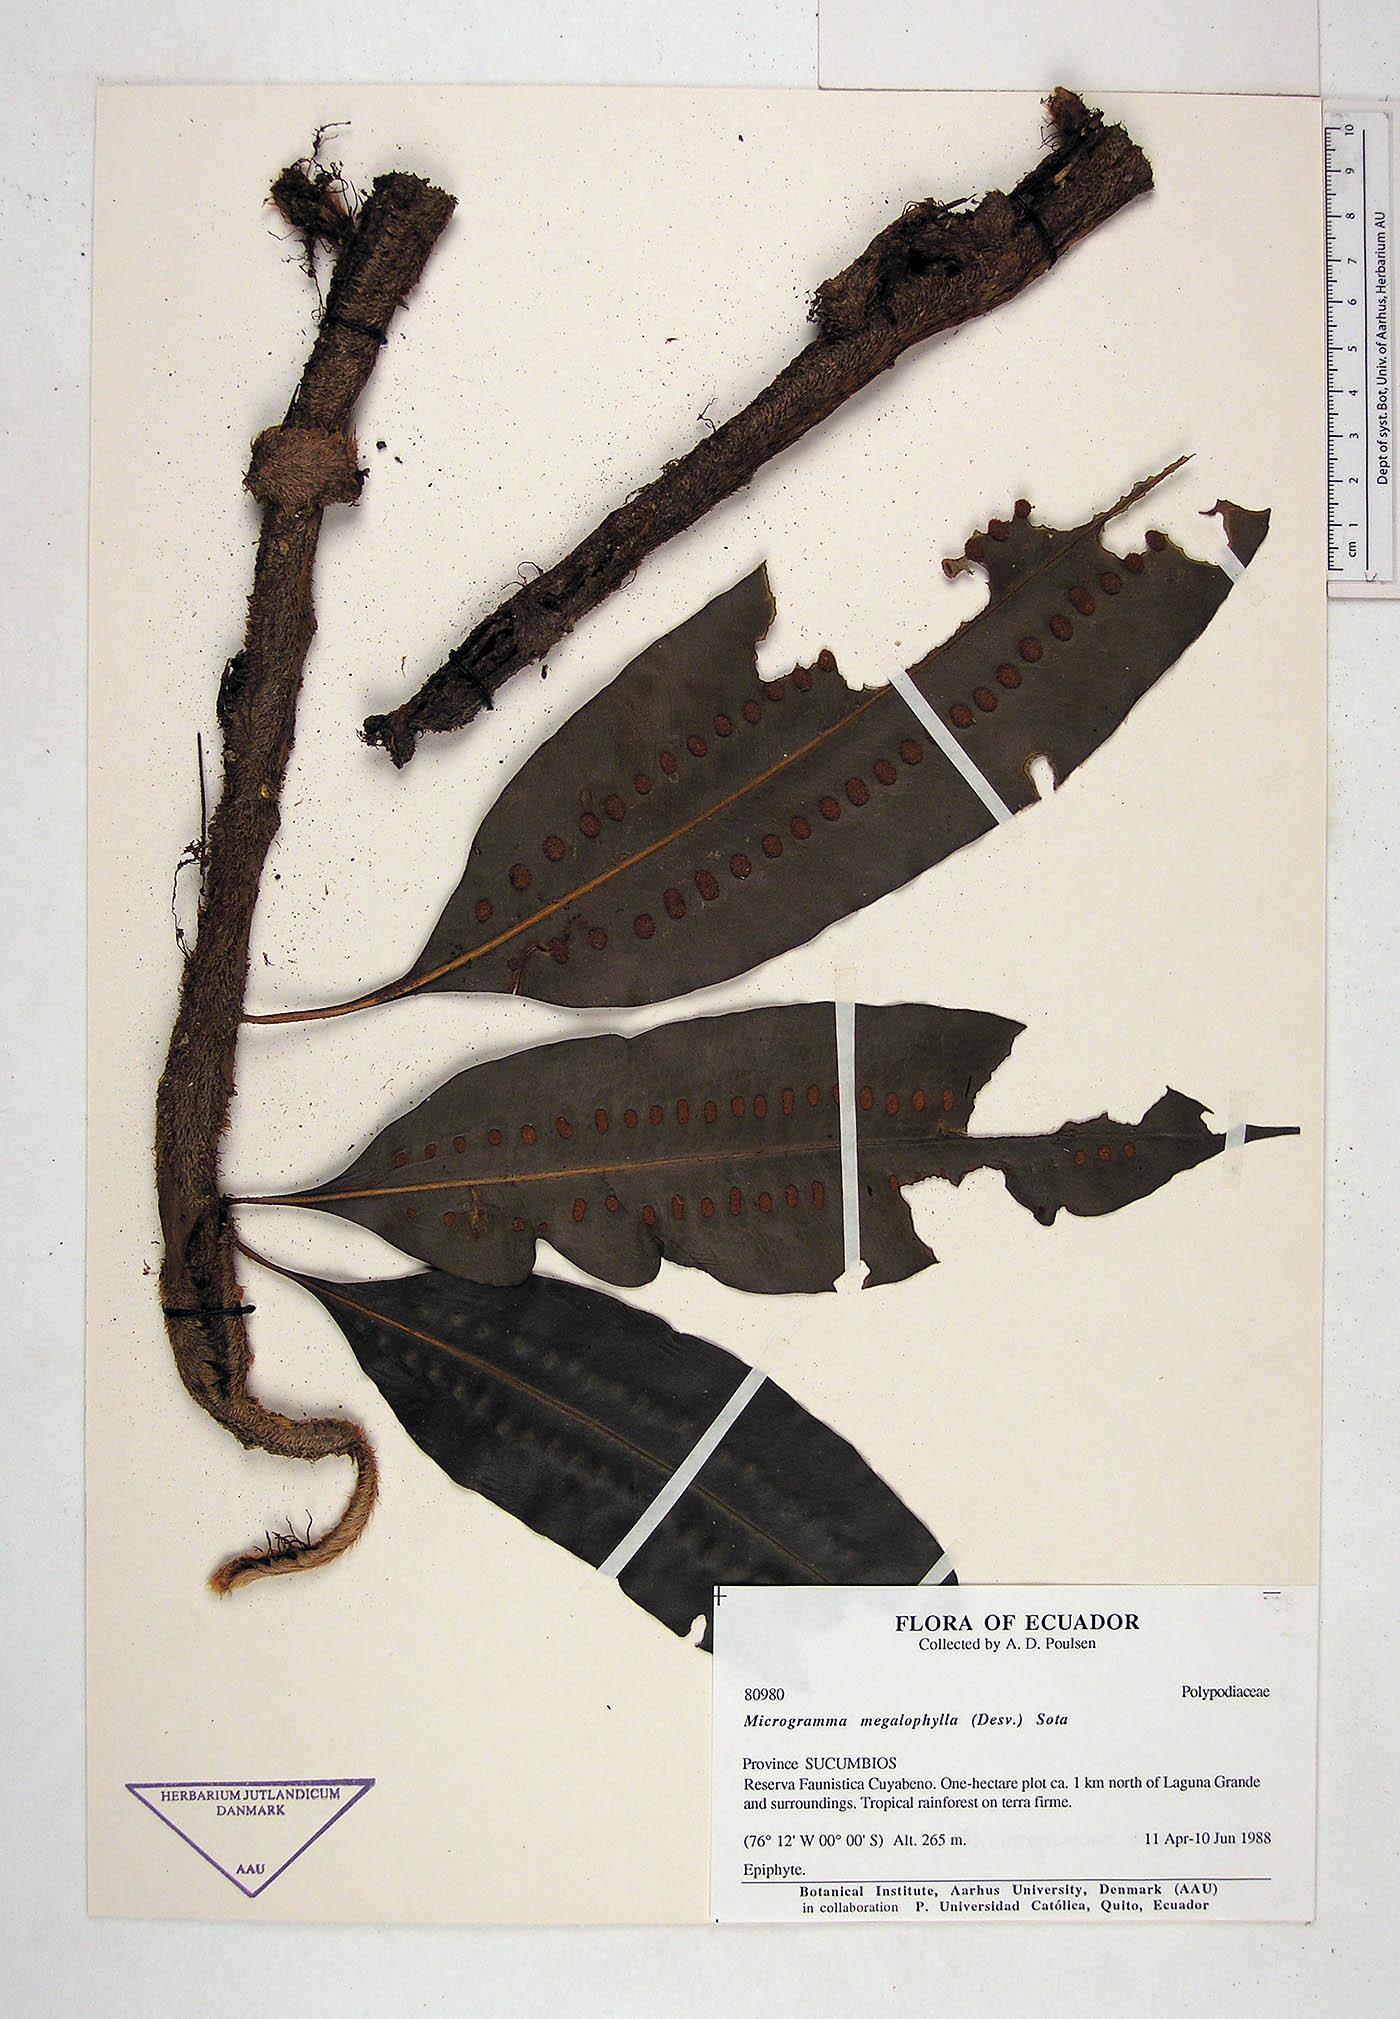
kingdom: Plantae
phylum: Tracheophyta
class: Polypodiopsida
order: Polypodiales
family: Polypodiaceae
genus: Microgramma
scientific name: Microgramma megalophylla
